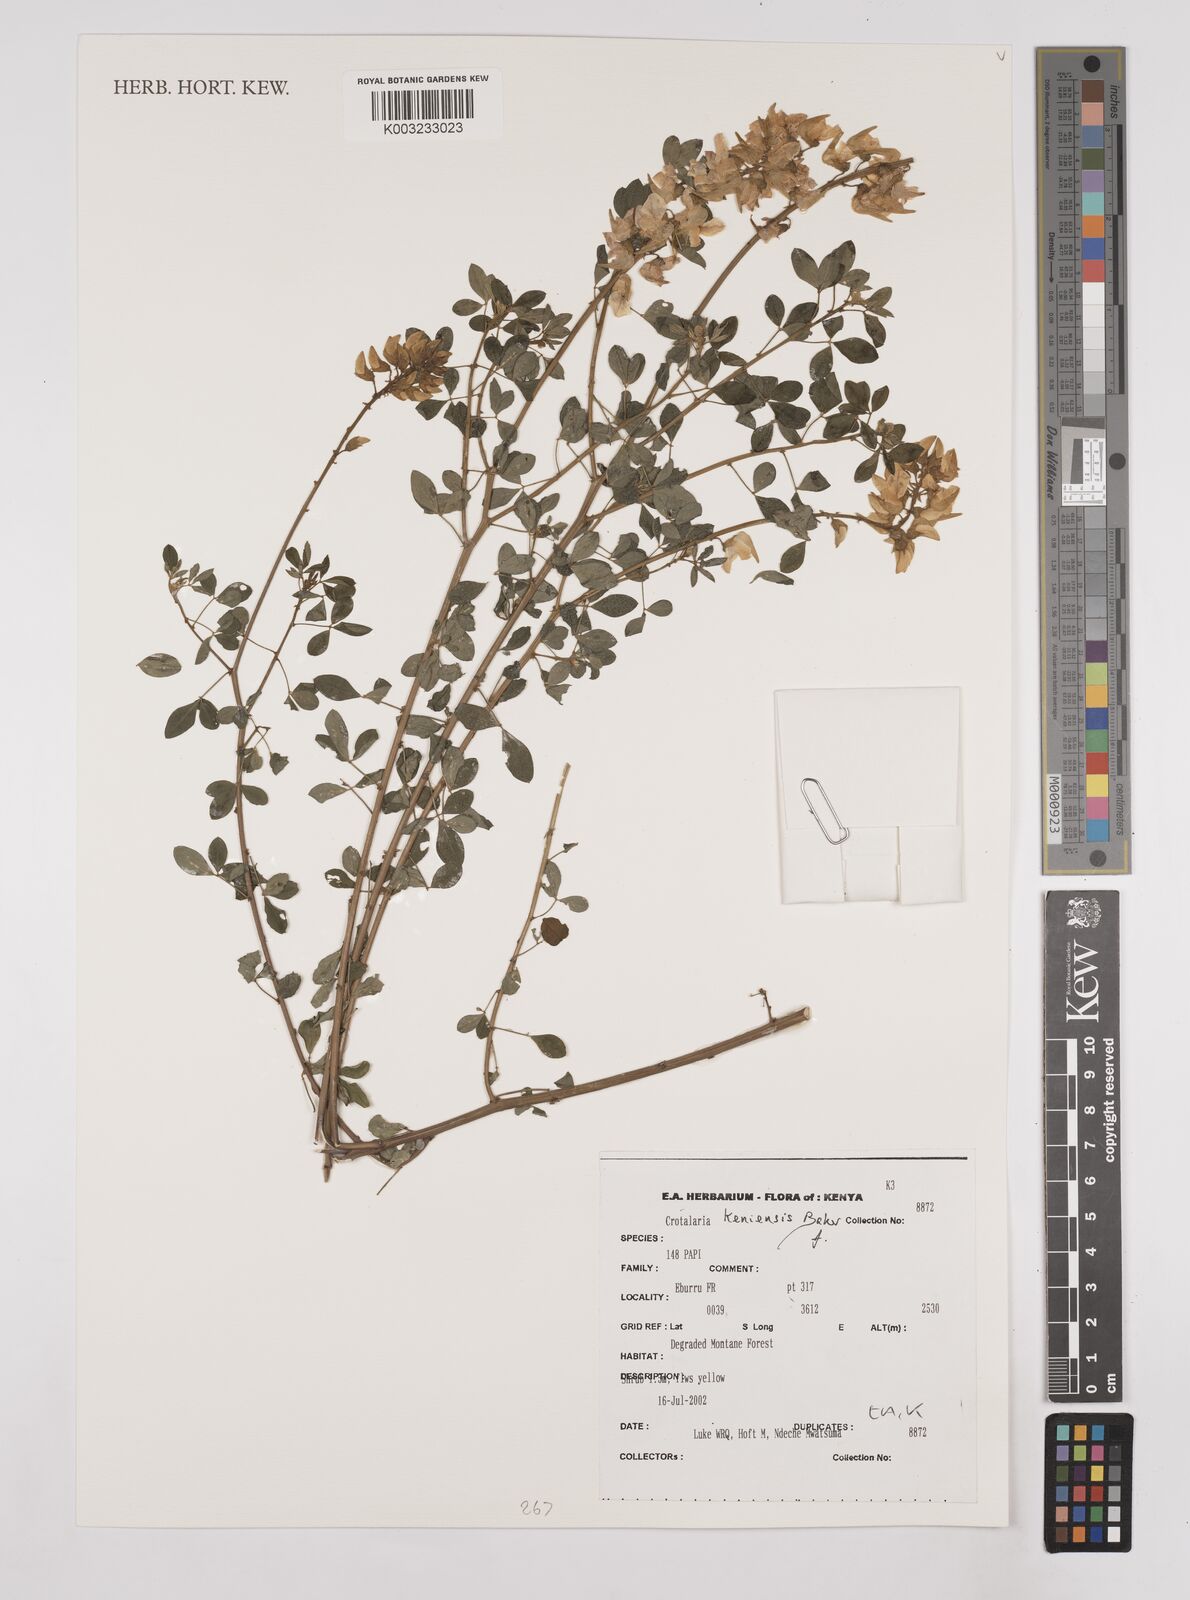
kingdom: Plantae
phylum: Tracheophyta
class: Magnoliopsida
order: Fabales
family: Fabaceae
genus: Crotalaria
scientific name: Crotalaria keniensis
